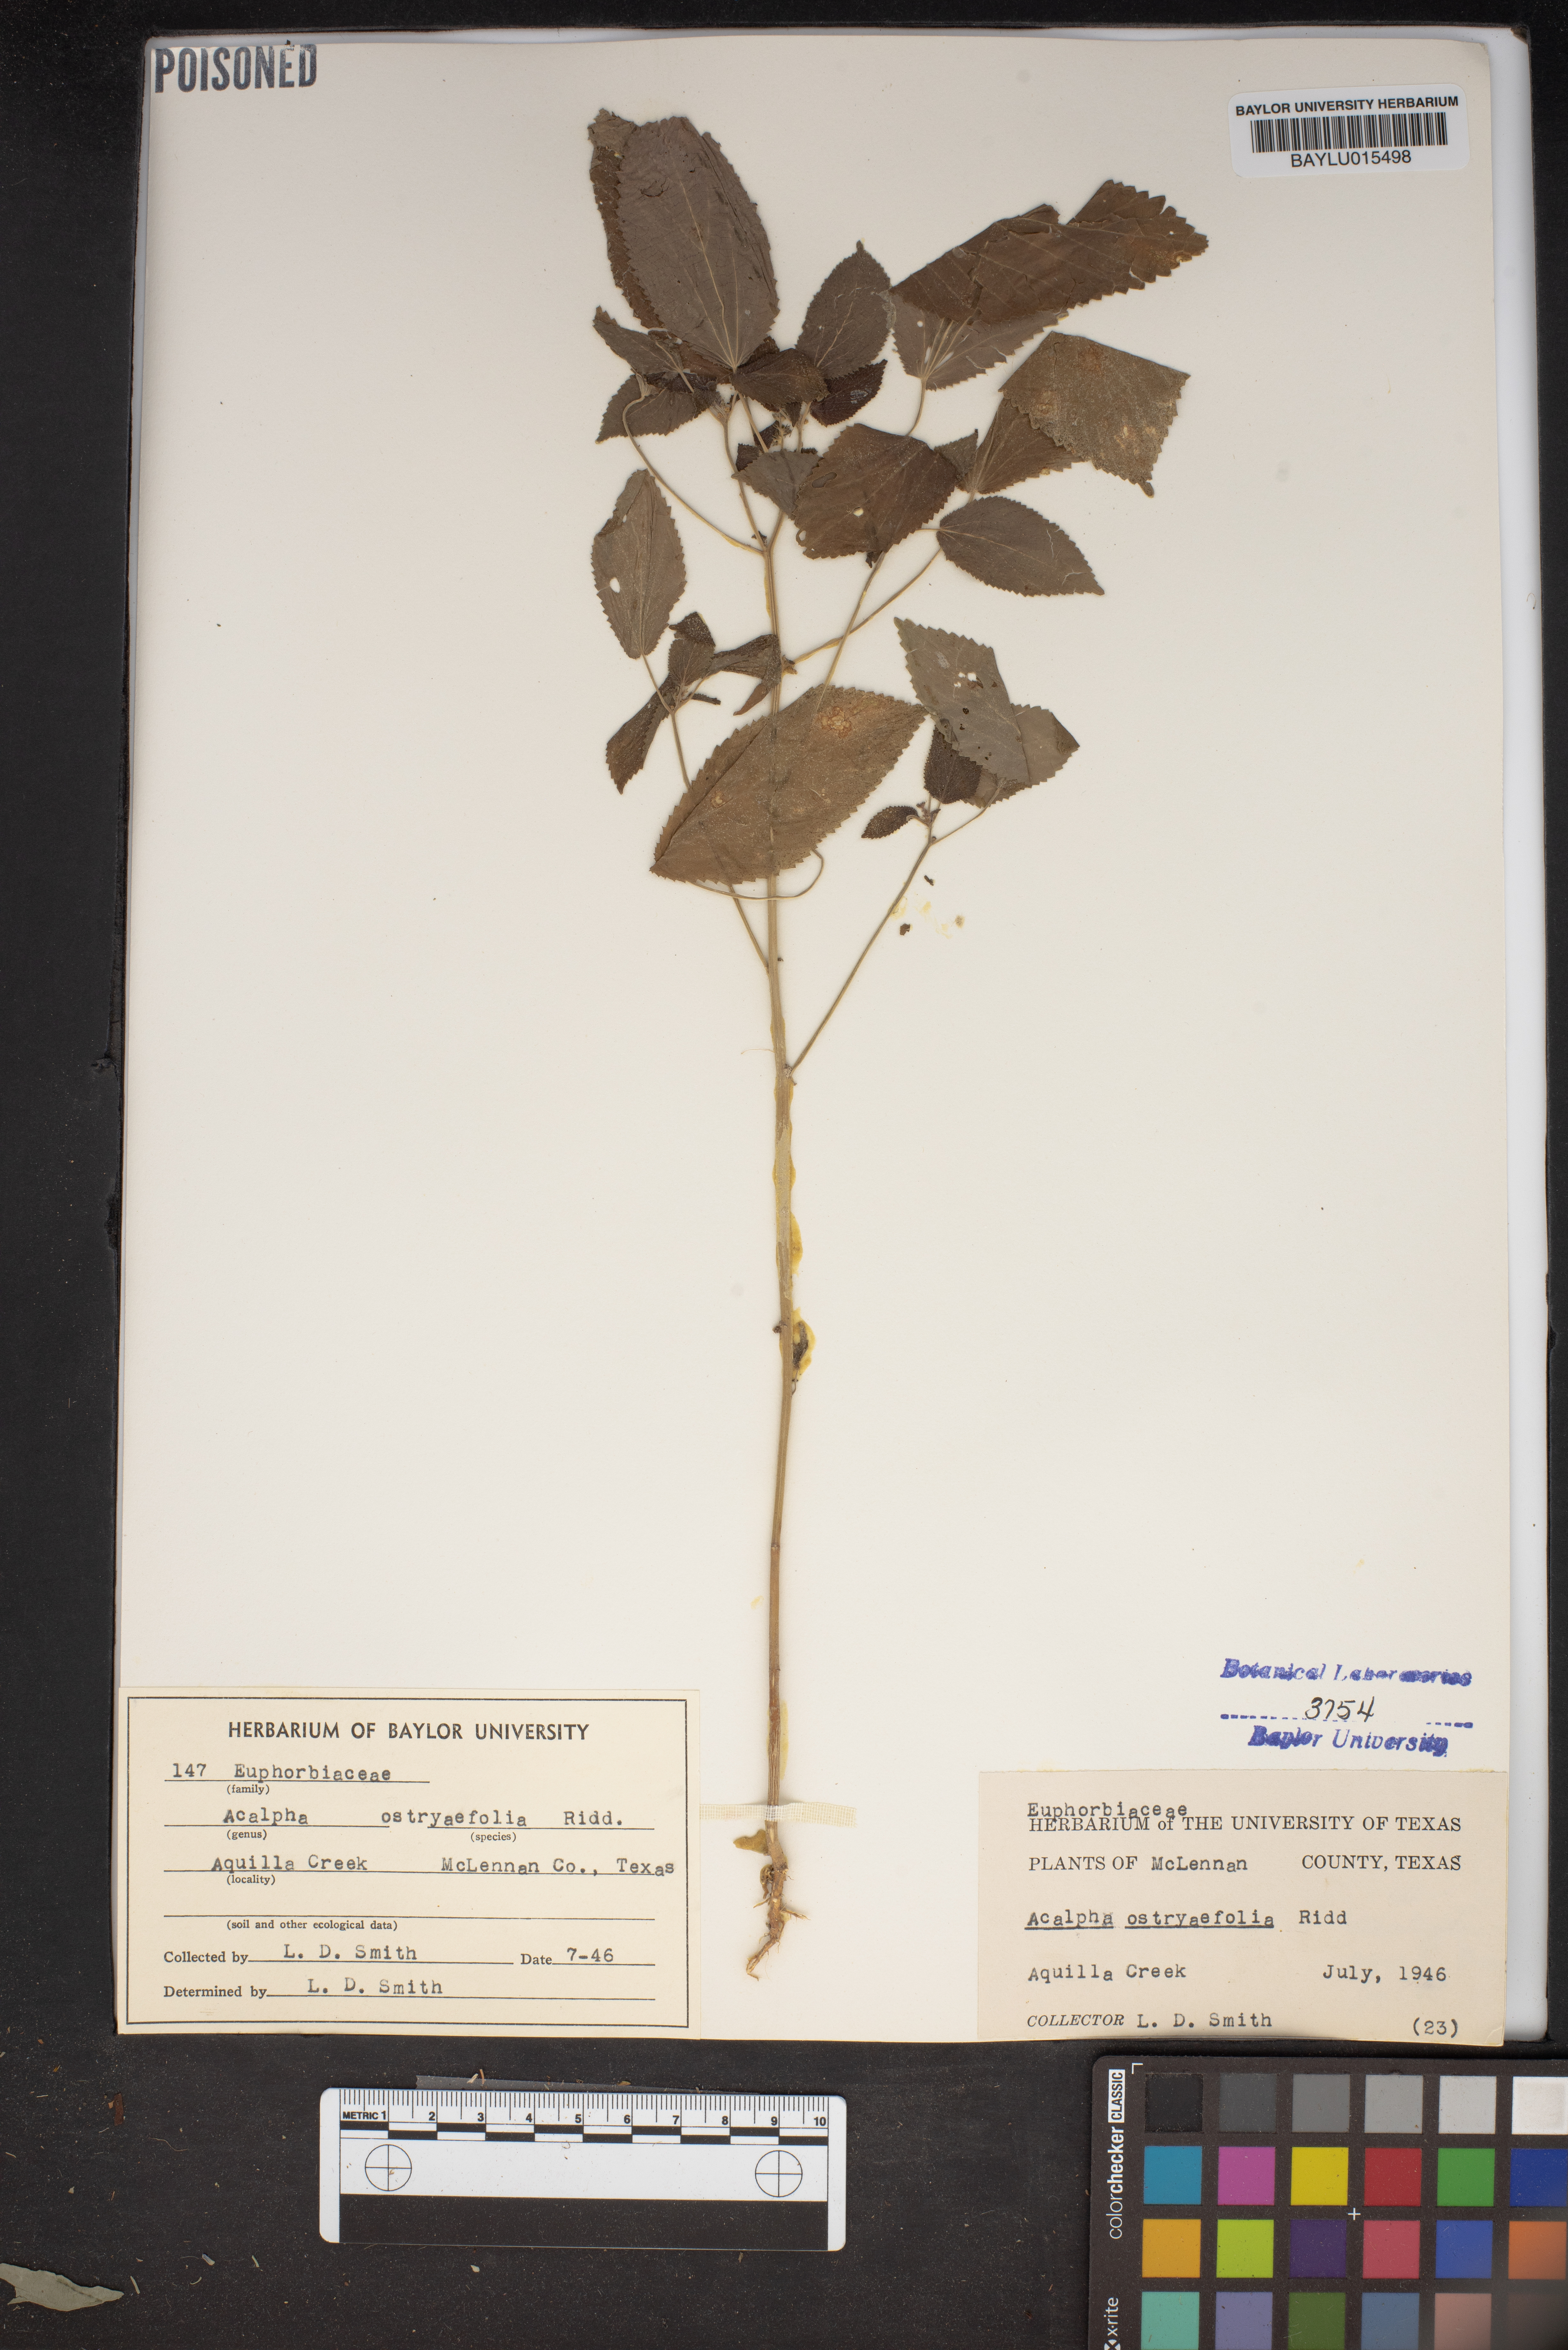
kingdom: Plantae
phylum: Tracheophyta
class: Magnoliopsida
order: Malpighiales
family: Euphorbiaceae
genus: Acalypha
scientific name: Acalypha ostryifolia
